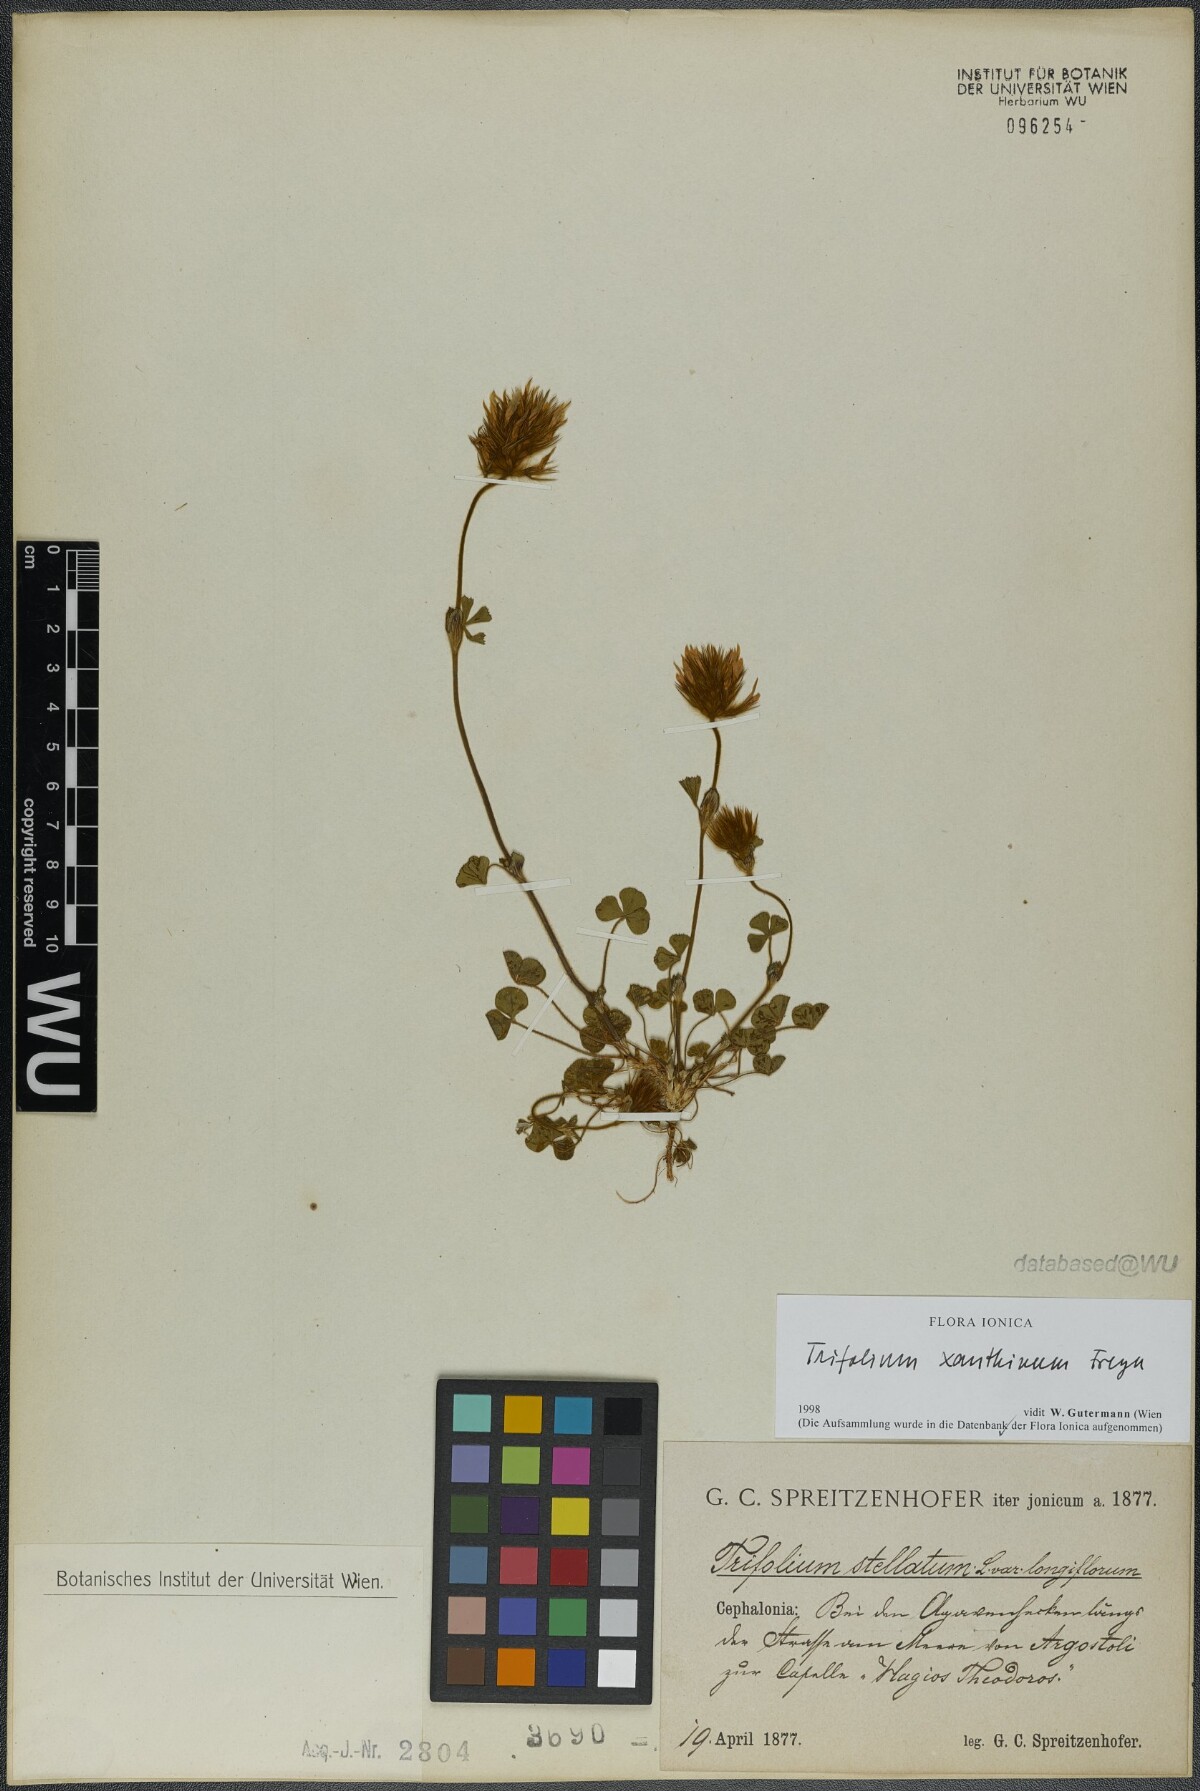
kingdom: Plantae
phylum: Tracheophyta
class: Magnoliopsida
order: Fabales
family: Fabaceae
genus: Trifolium
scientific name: Trifolium xanthinum
